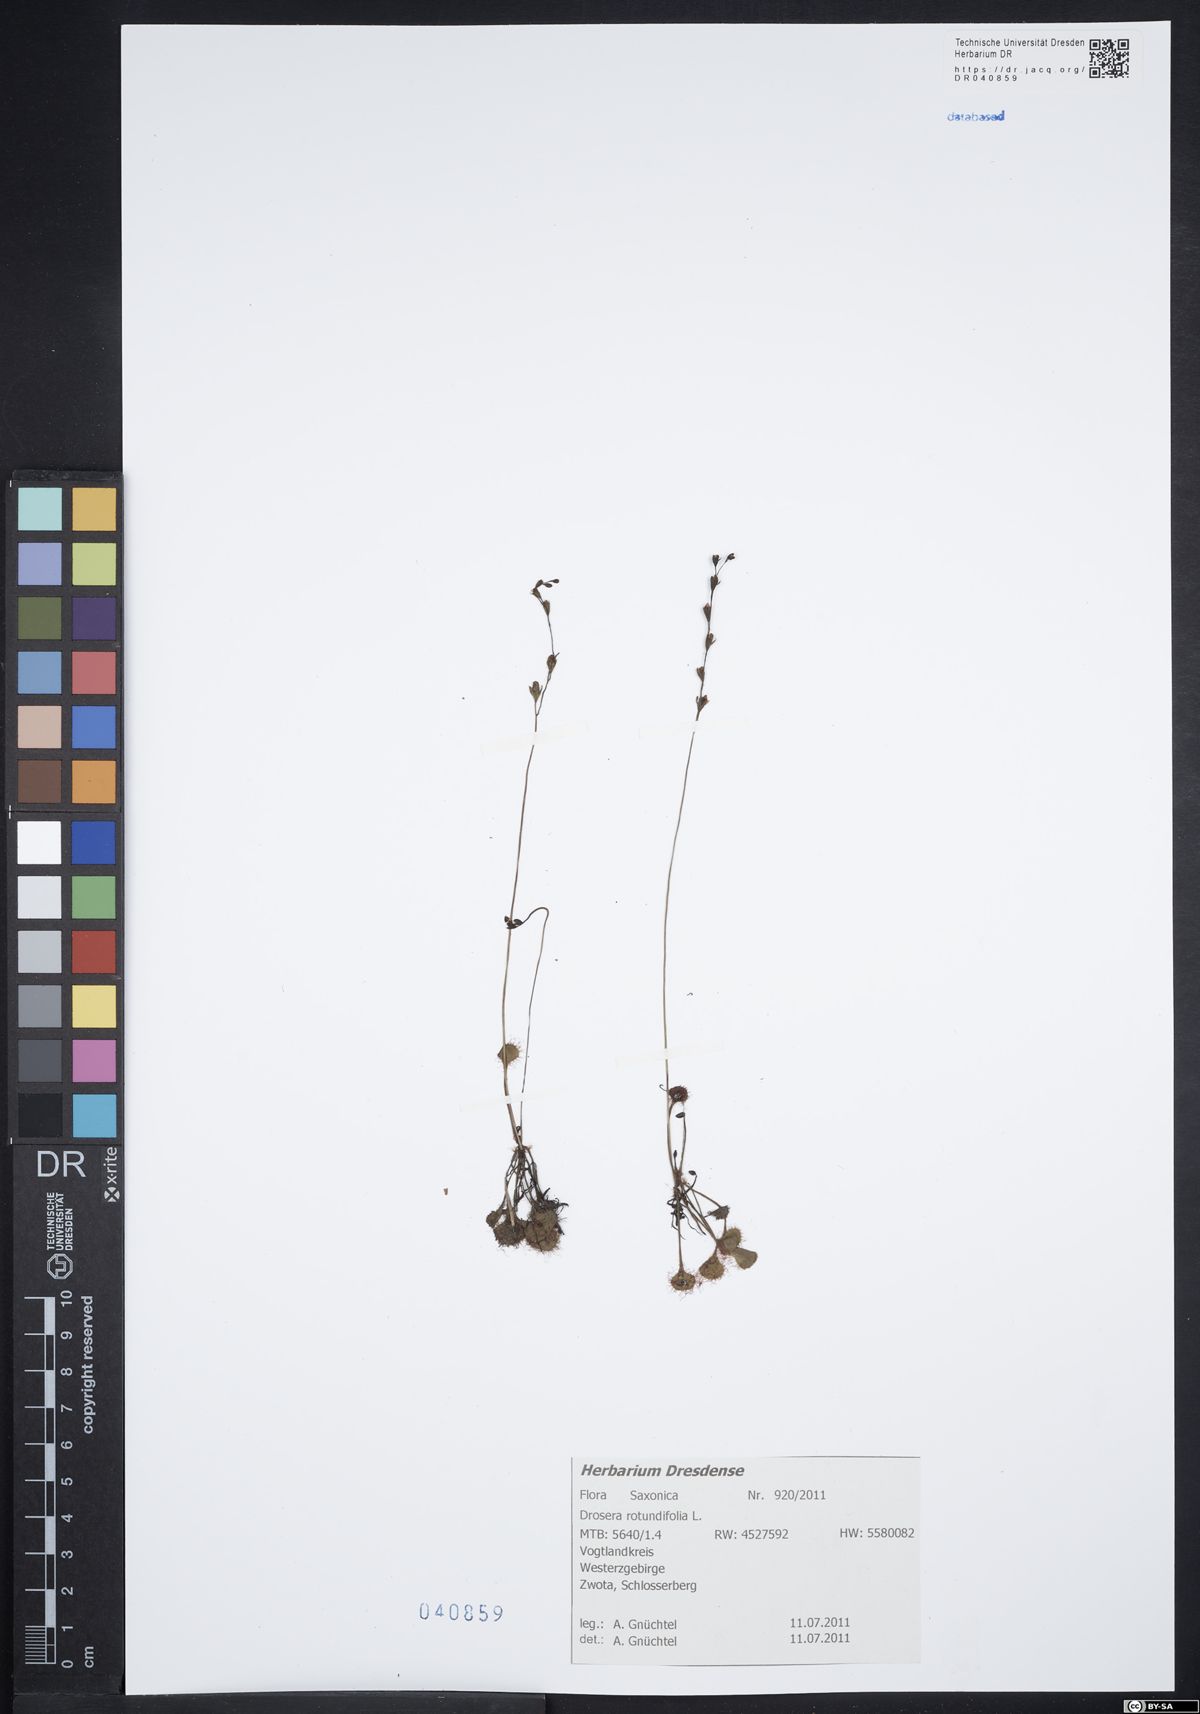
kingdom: Plantae
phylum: Tracheophyta
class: Magnoliopsida
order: Caryophyllales
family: Droseraceae
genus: Drosera
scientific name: Drosera rotundifolia
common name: Round-leaved sundew
